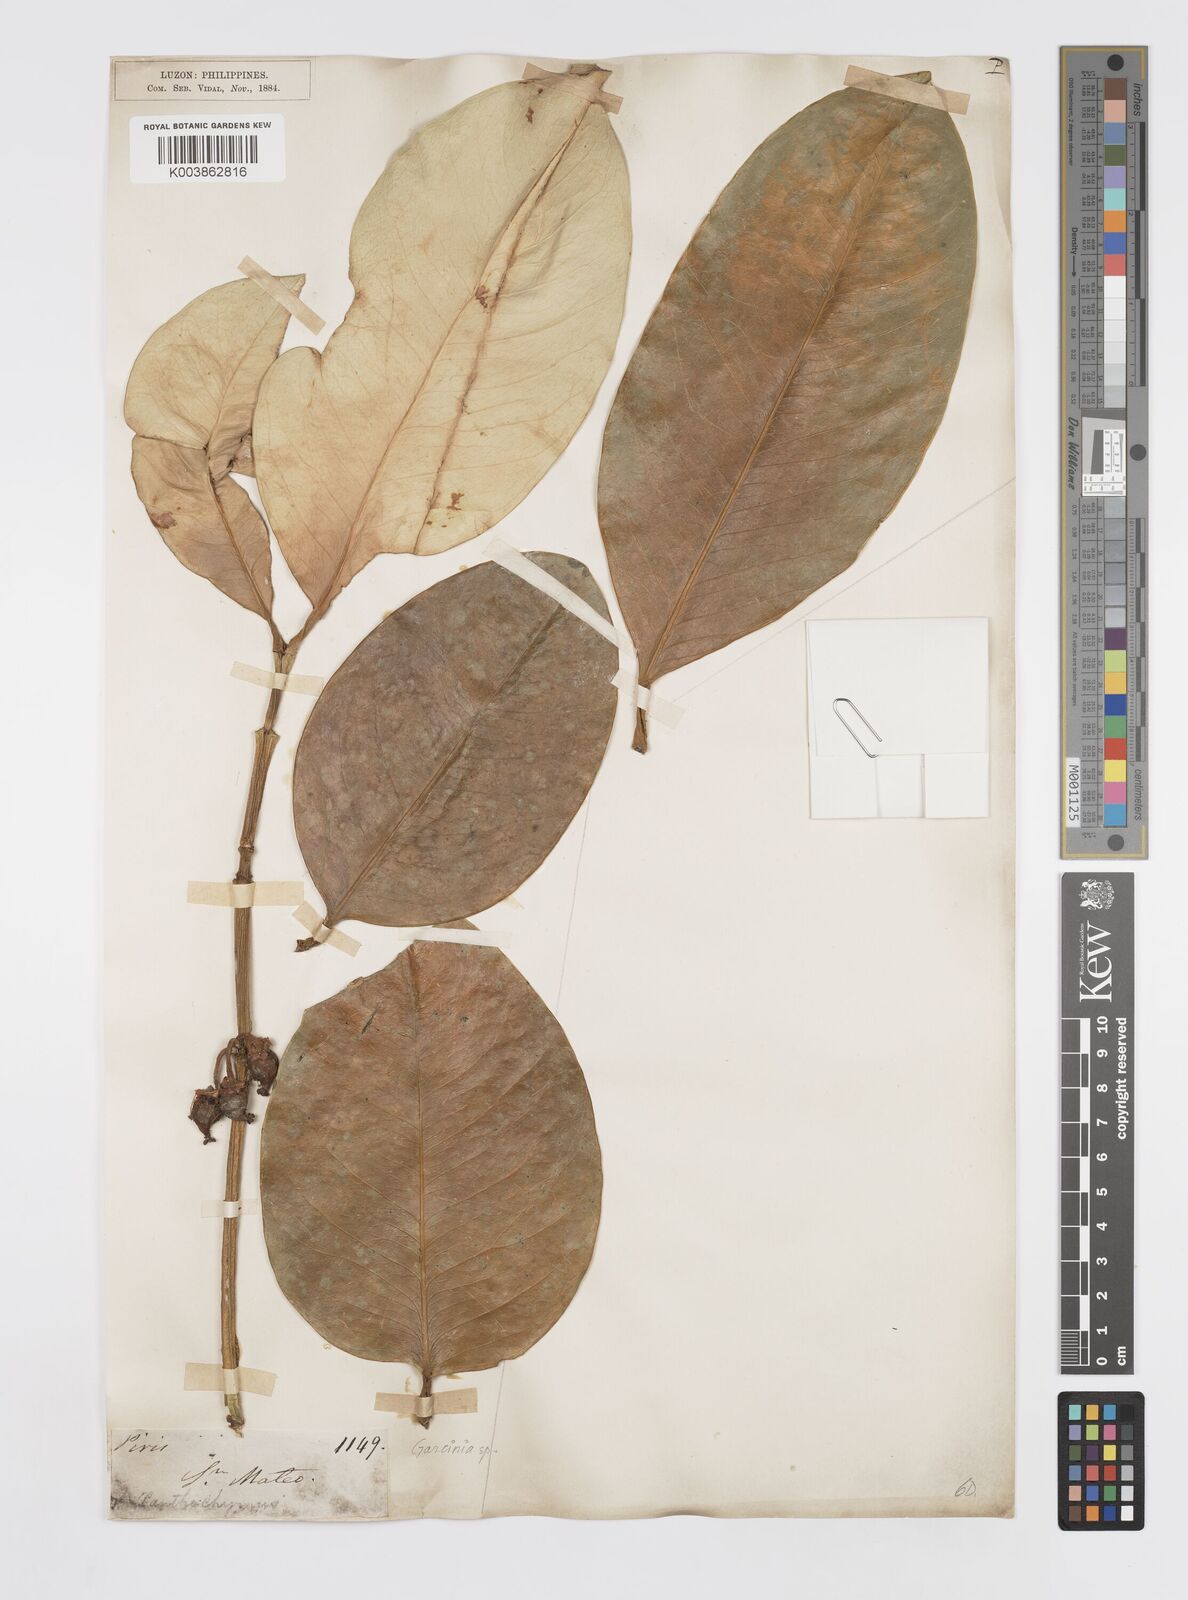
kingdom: Plantae
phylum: Tracheophyta
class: Magnoliopsida
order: Malpighiales
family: Clusiaceae
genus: Garcinia
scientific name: Garcinia
